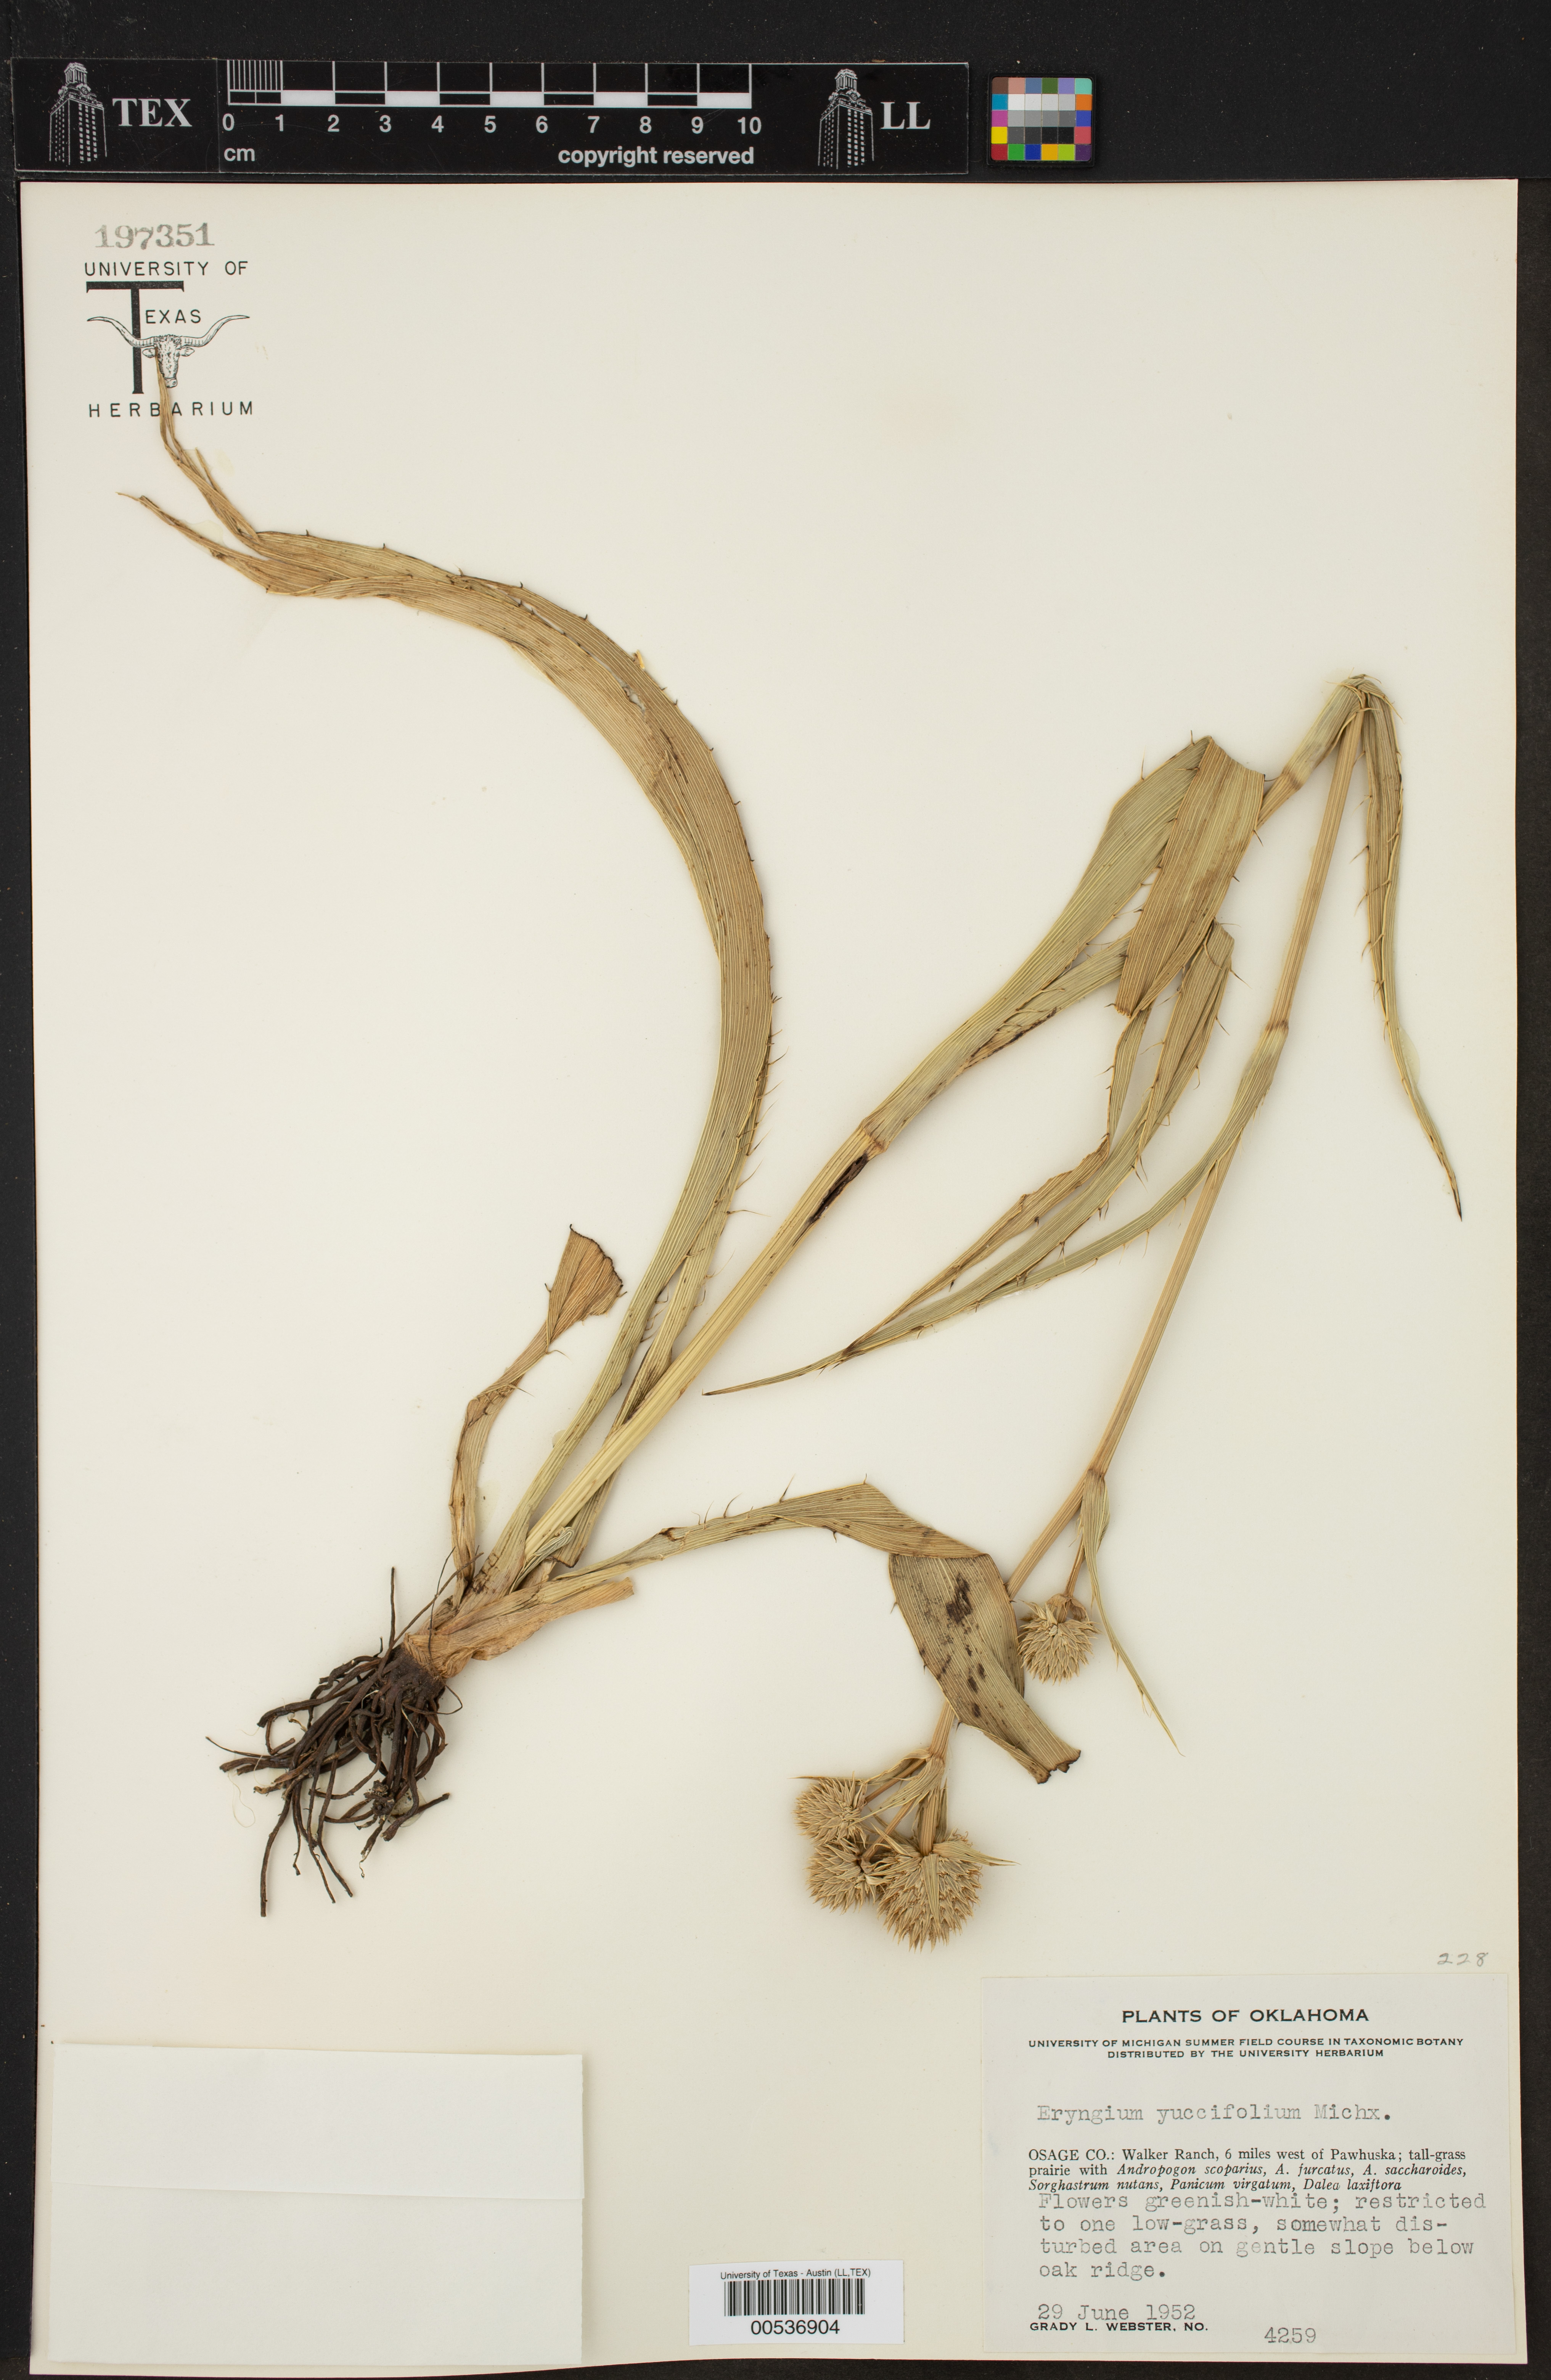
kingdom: Plantae
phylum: Tracheophyta
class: Magnoliopsida
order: Apiales
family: Apiaceae
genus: Eryngium
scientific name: Eryngium yuccifolium
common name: Button eryngo
